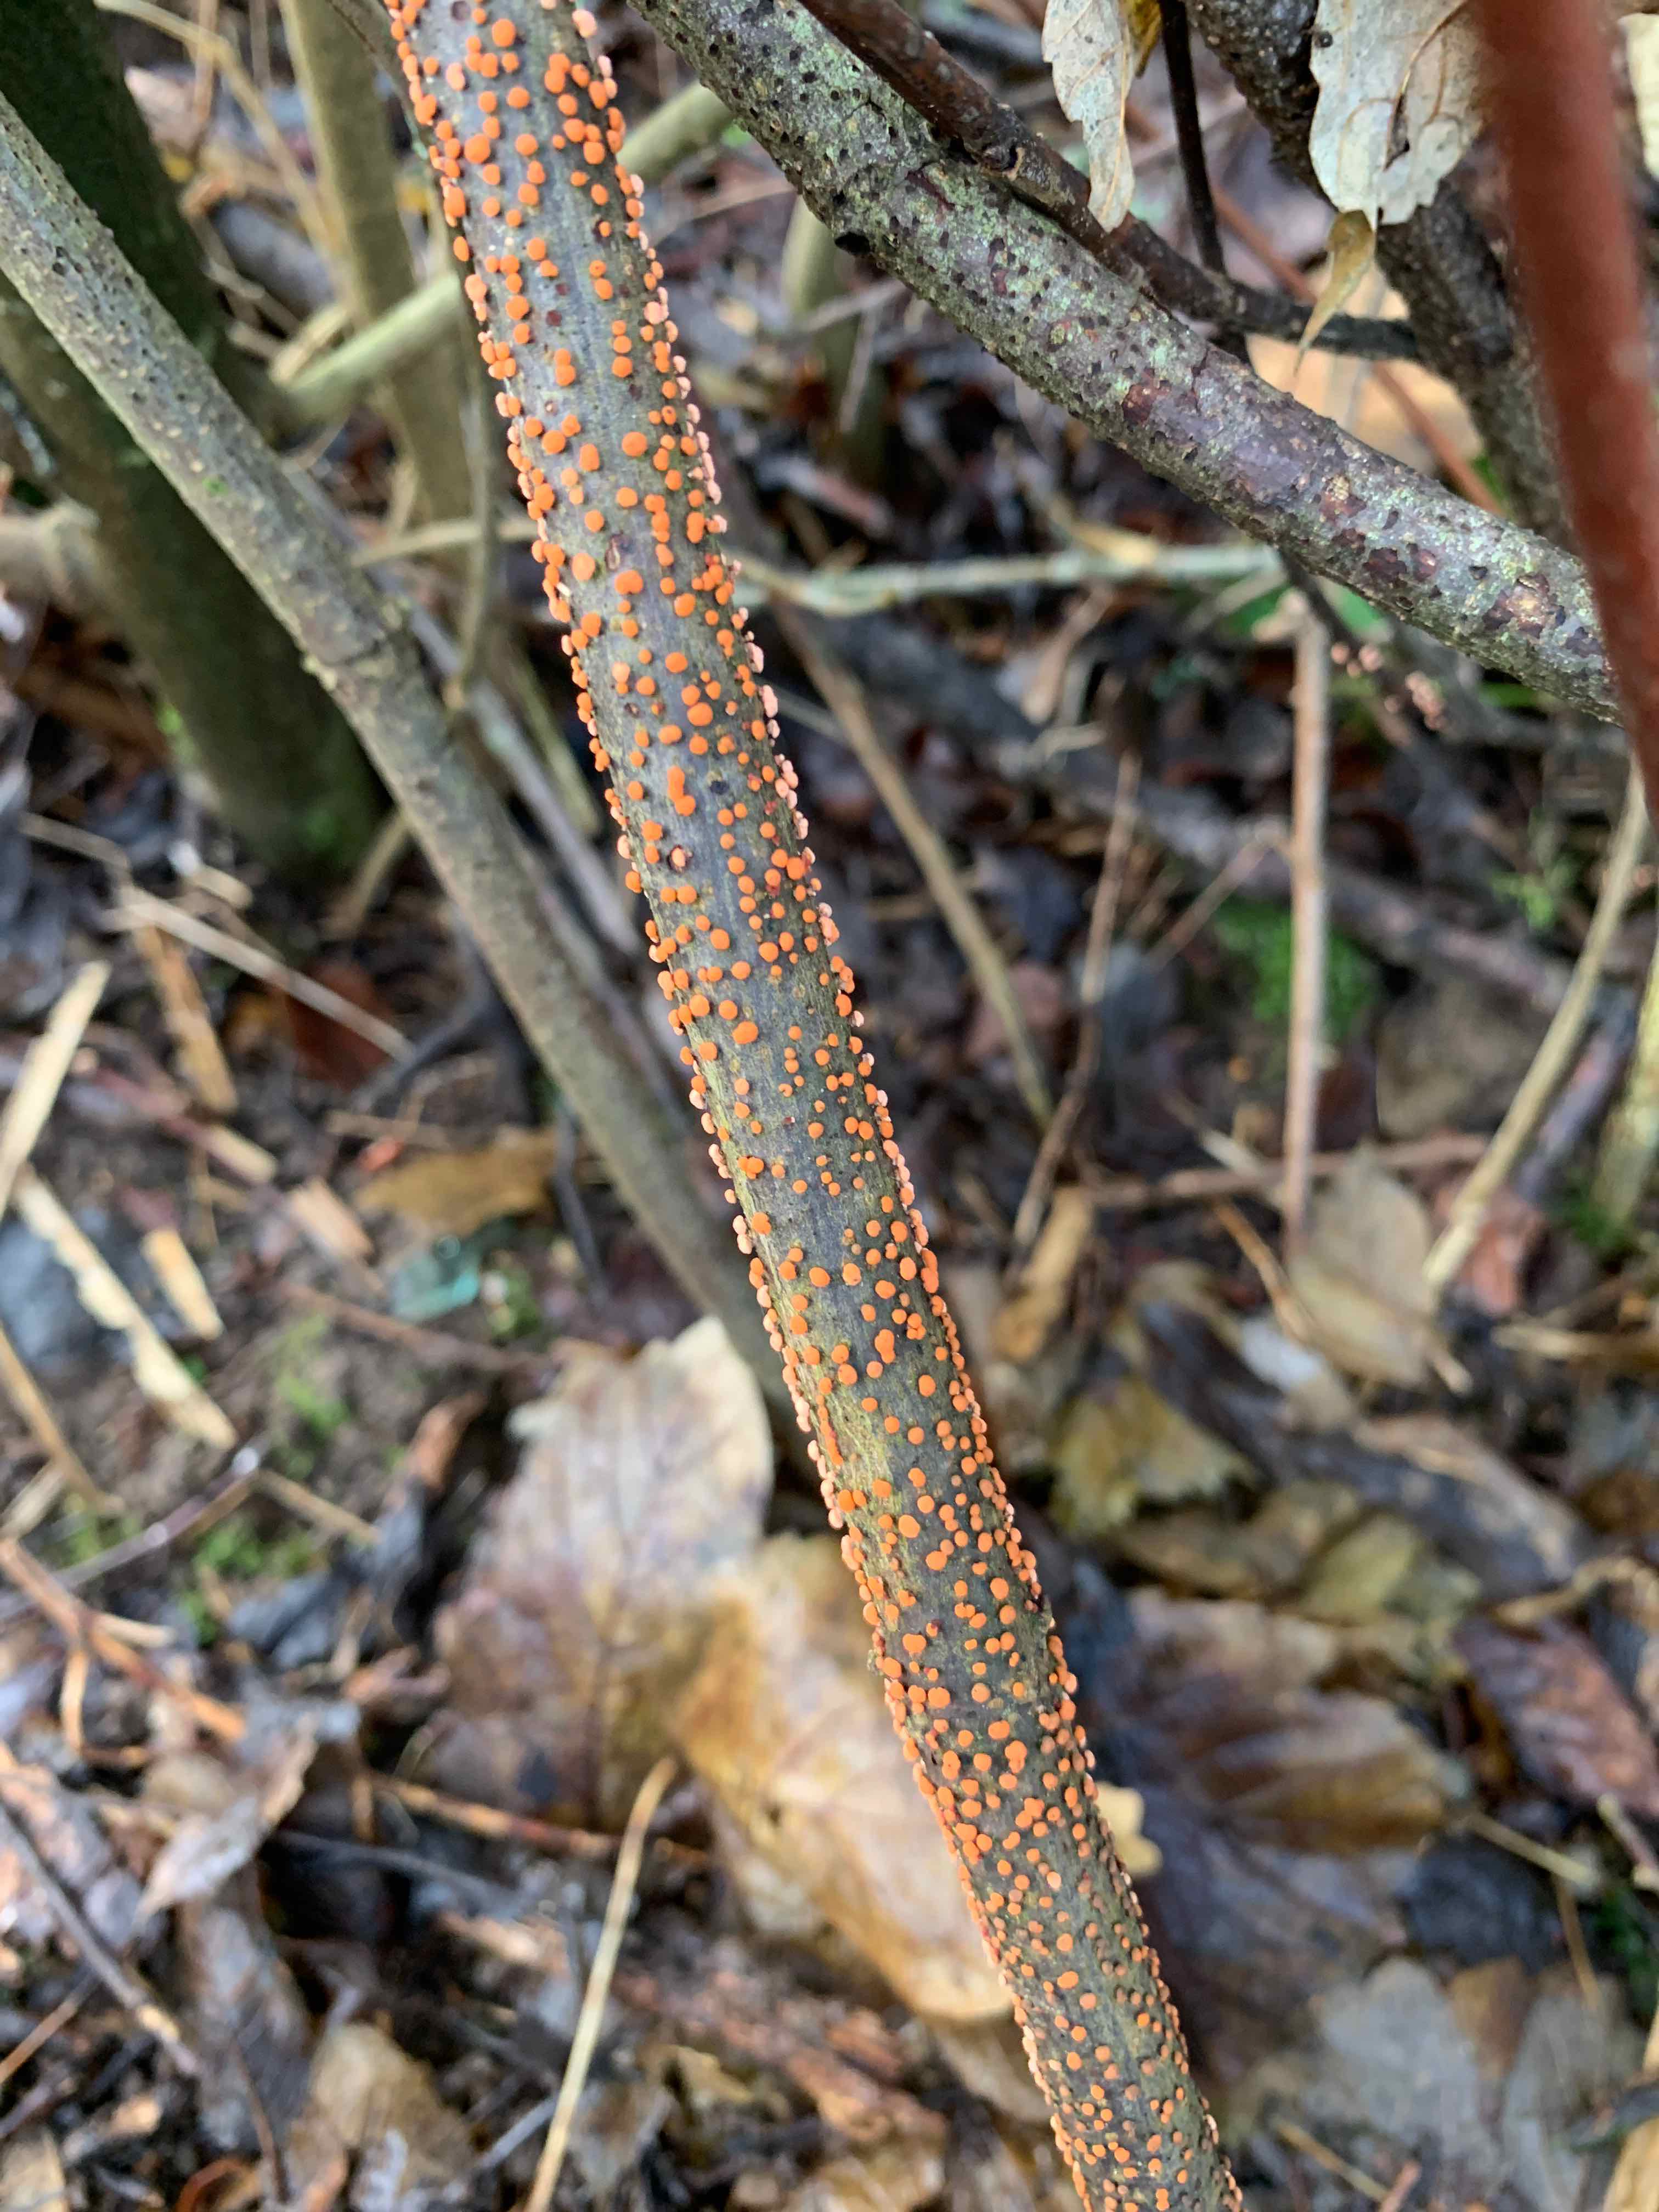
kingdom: Fungi
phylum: Ascomycota
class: Sordariomycetes
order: Hypocreales
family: Nectriaceae
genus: Nectria
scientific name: Nectria cinnabarina
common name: almindelig cinnobersvamp
